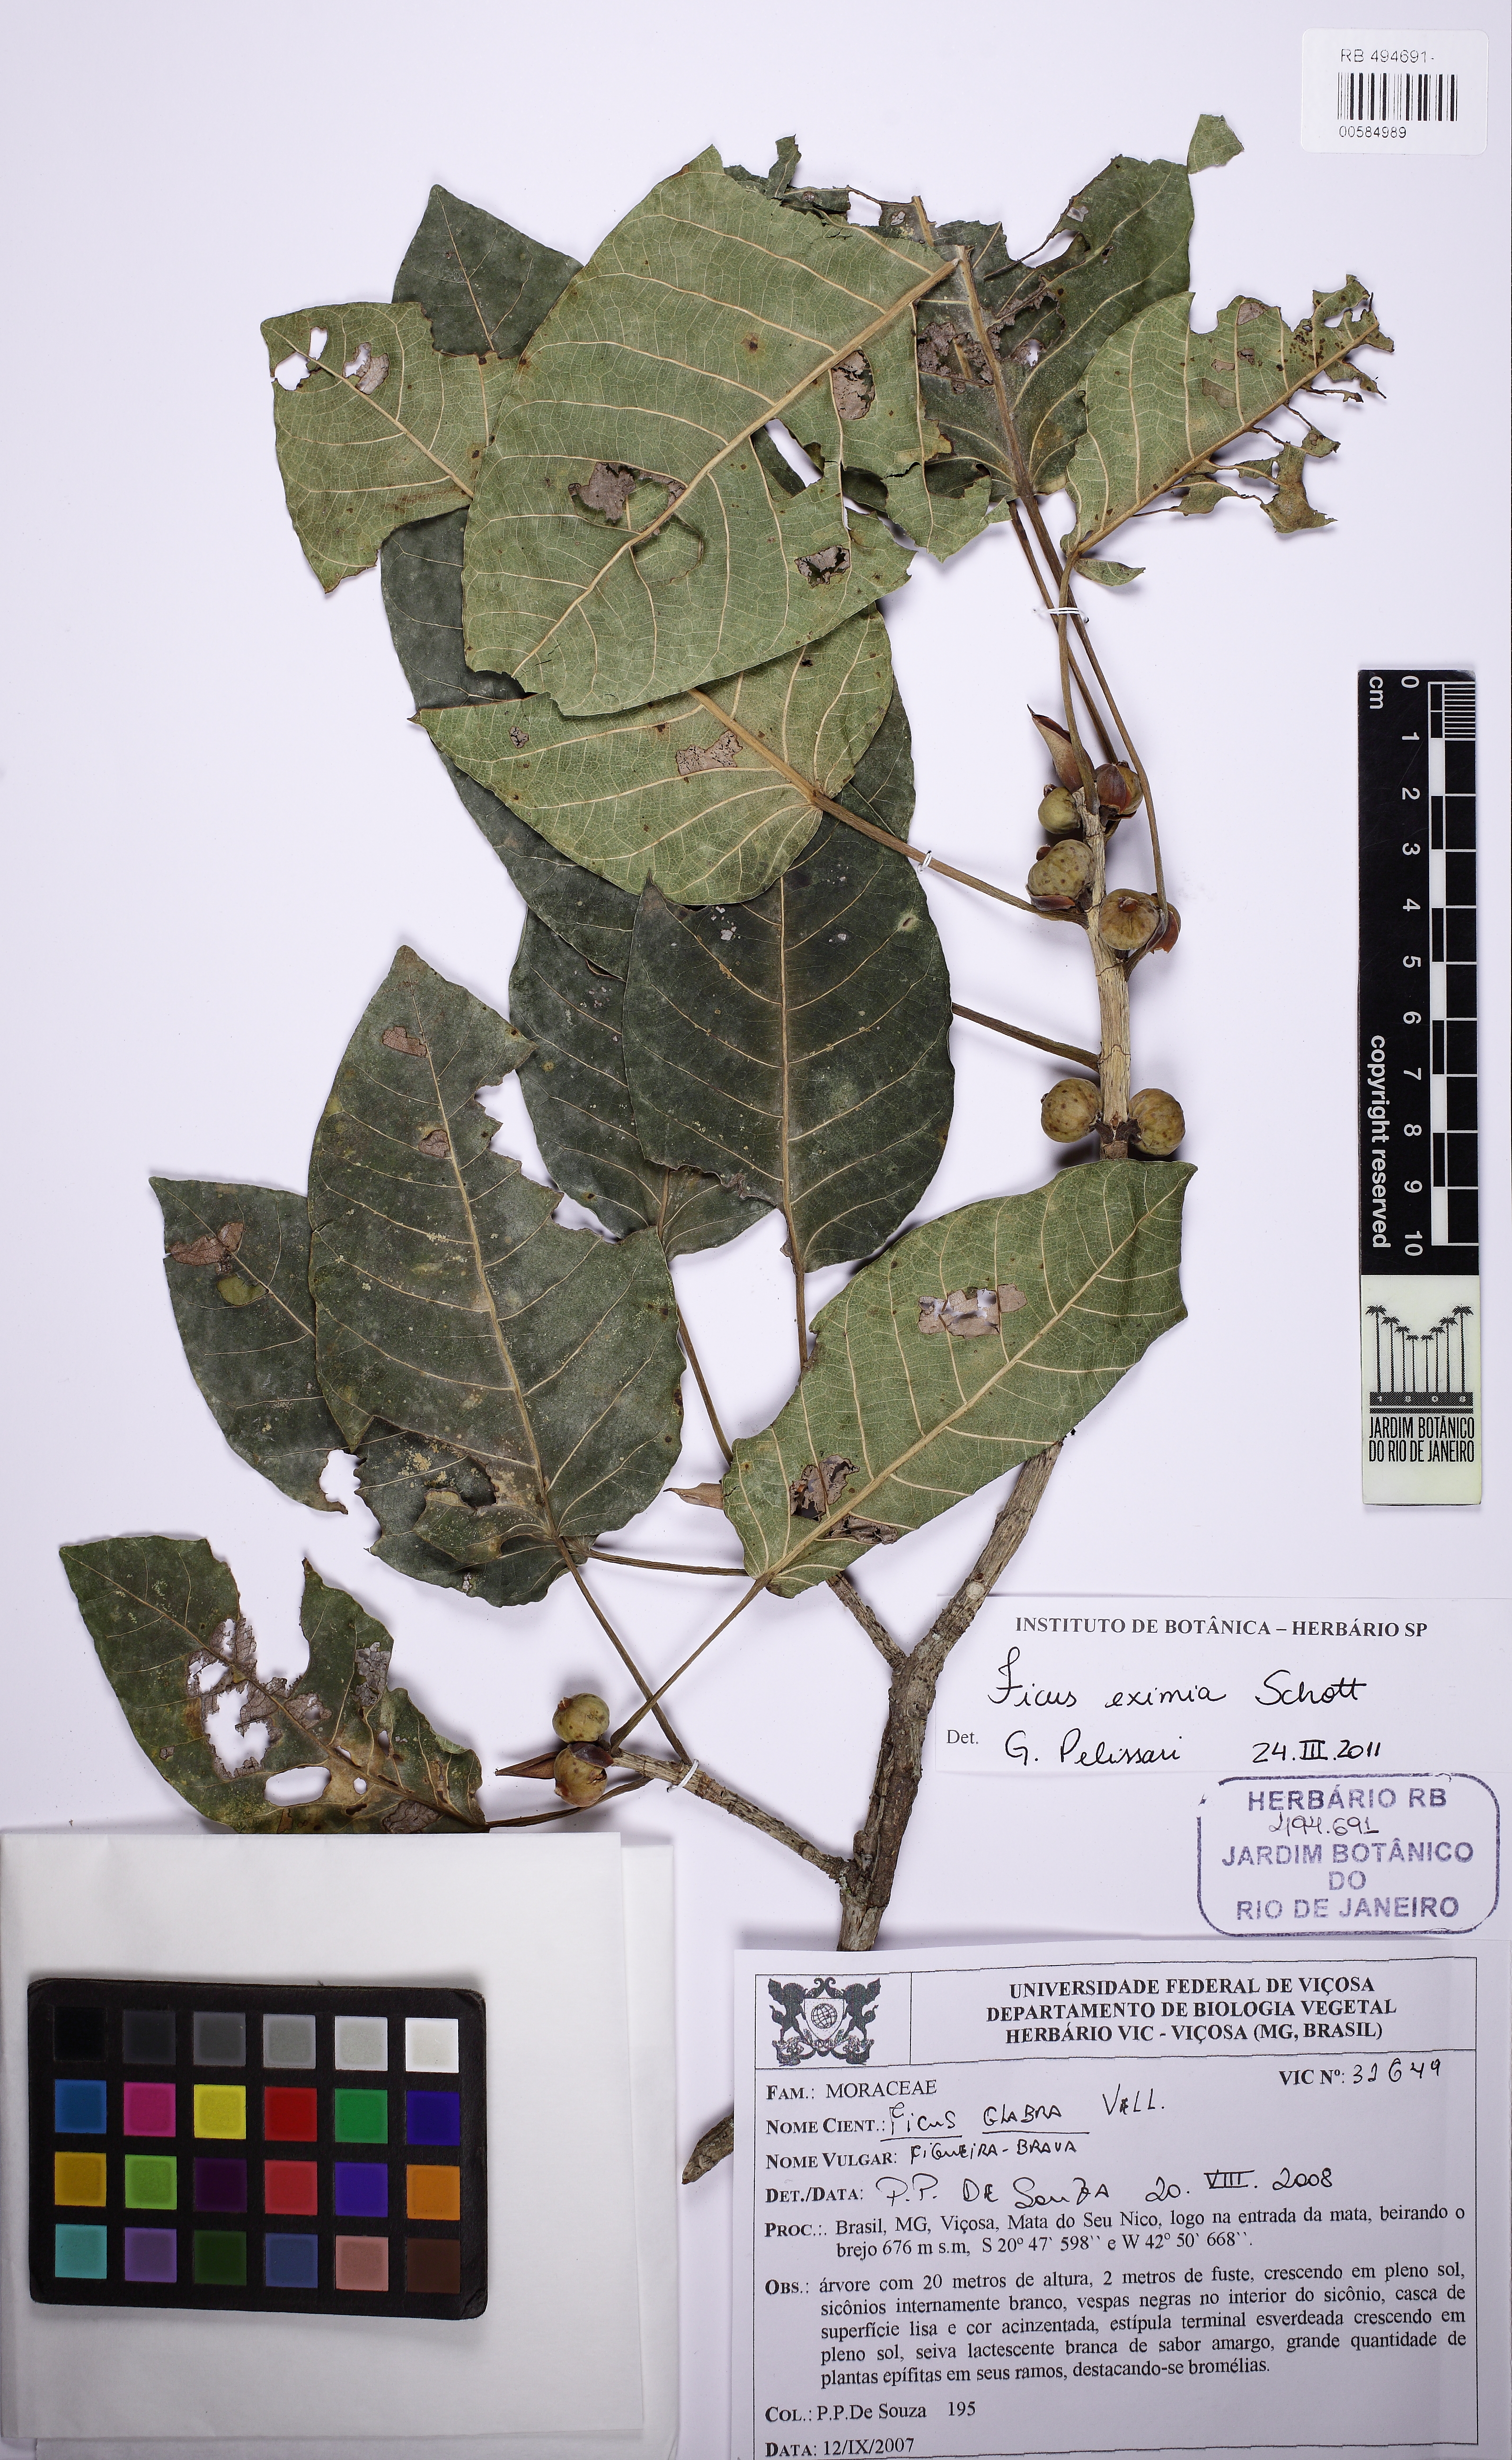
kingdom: Plantae
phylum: Tracheophyta
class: Magnoliopsida
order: Rosales
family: Moraceae
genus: Ficus
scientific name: Ficus eximia
